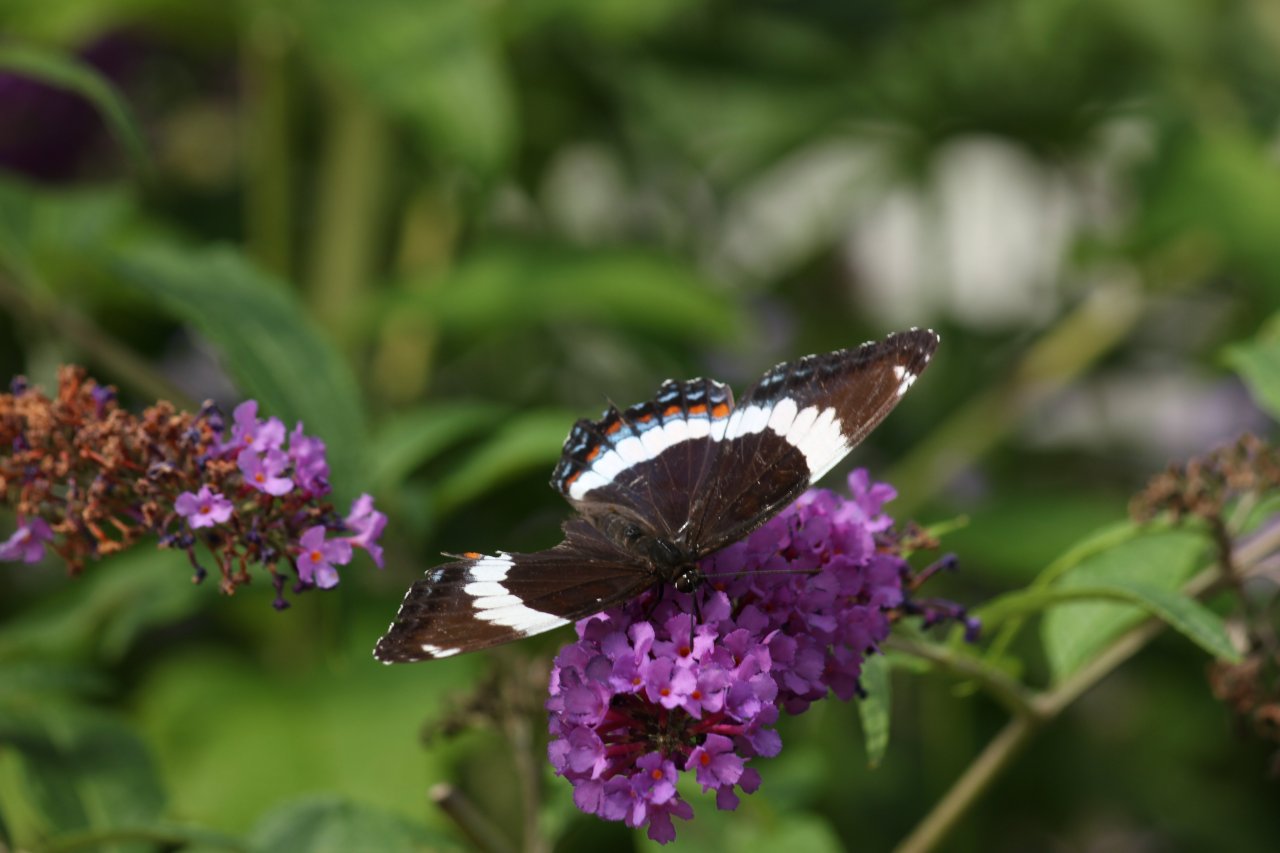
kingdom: Animalia
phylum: Arthropoda
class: Insecta
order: Lepidoptera
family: Nymphalidae
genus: Limenitis
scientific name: Limenitis arthemis
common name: Red-spotted Admiral
